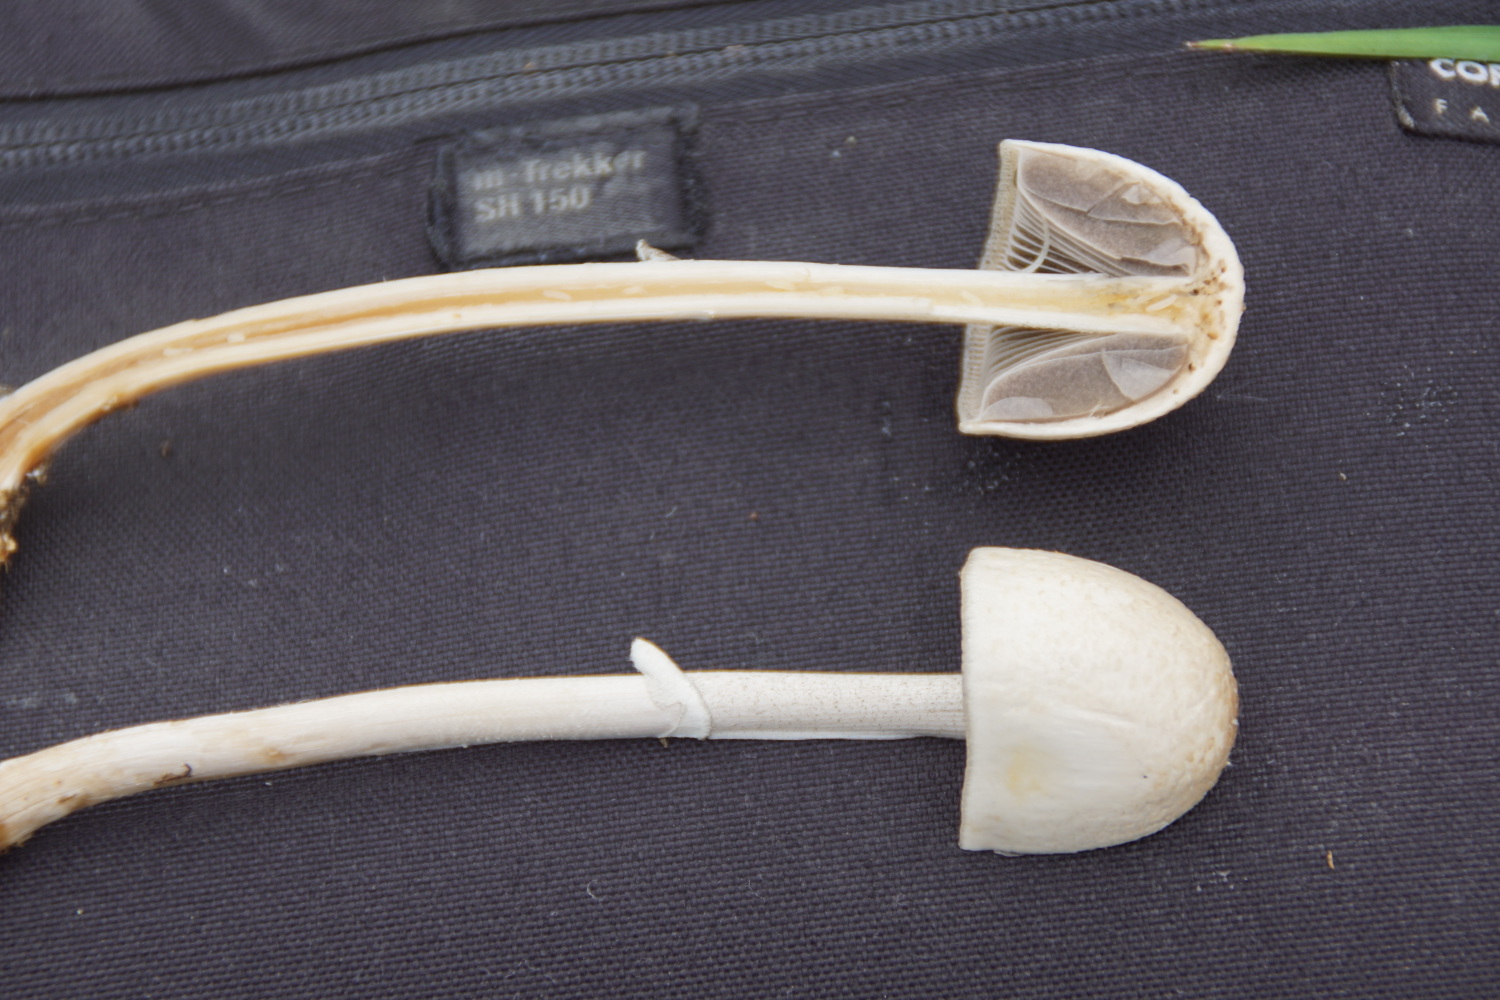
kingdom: Fungi
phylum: Basidiomycota
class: Agaricomycetes
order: Agaricales
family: Bolbitiaceae
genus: Panaeolus
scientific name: Panaeolus semiovatus
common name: ring-glanshat
